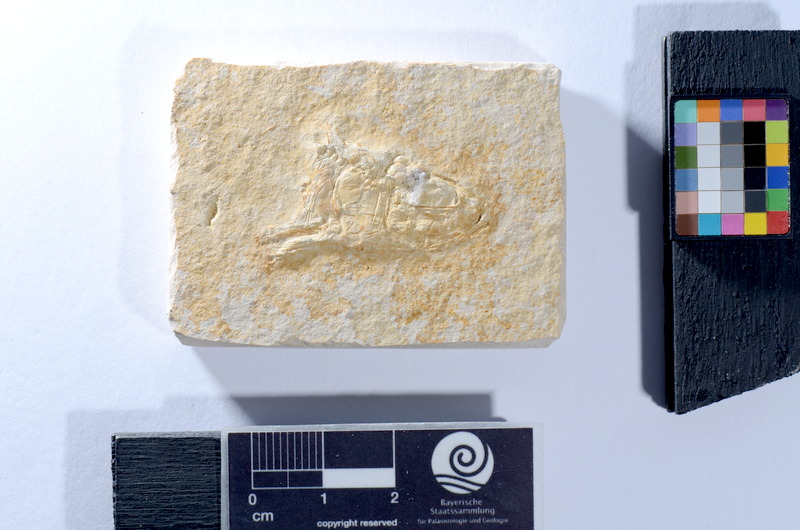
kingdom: Animalia
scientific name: Animalia
